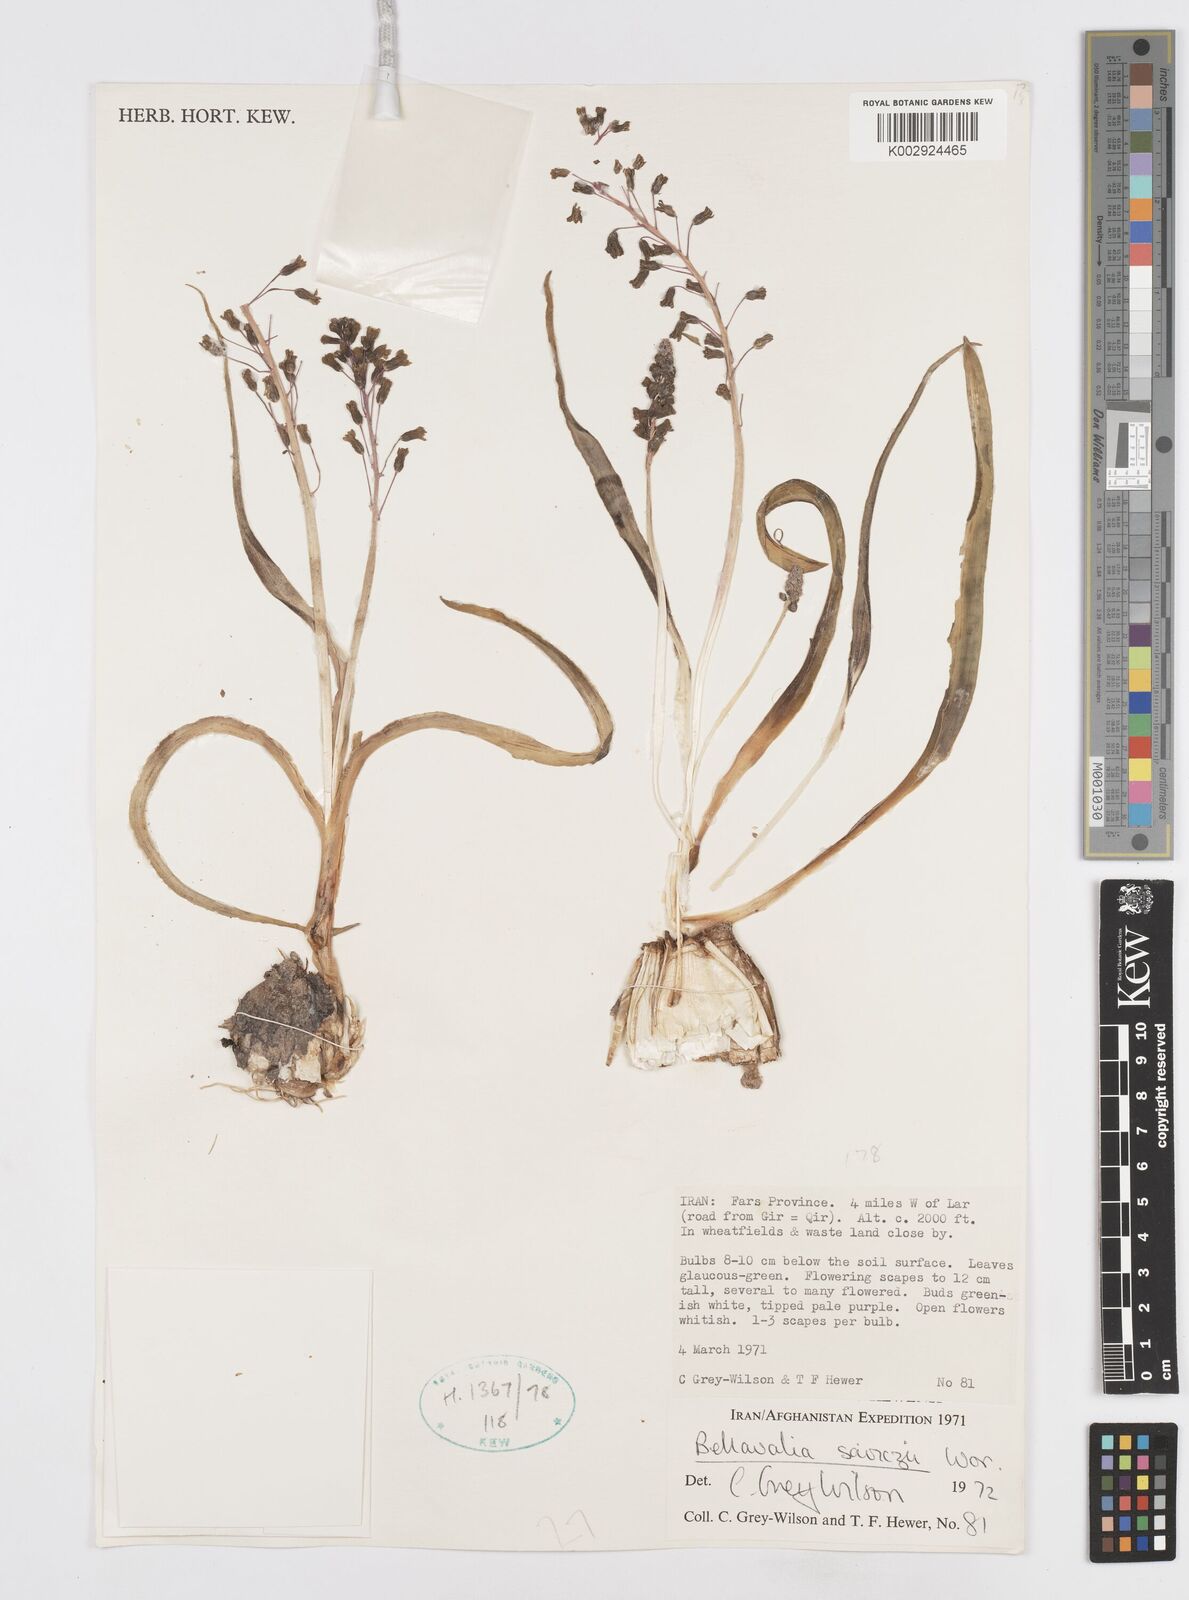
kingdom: Plantae
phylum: Tracheophyta
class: Liliopsida
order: Asparagales
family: Asparagaceae
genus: Bellevalia
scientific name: Bellevalia saviczii
